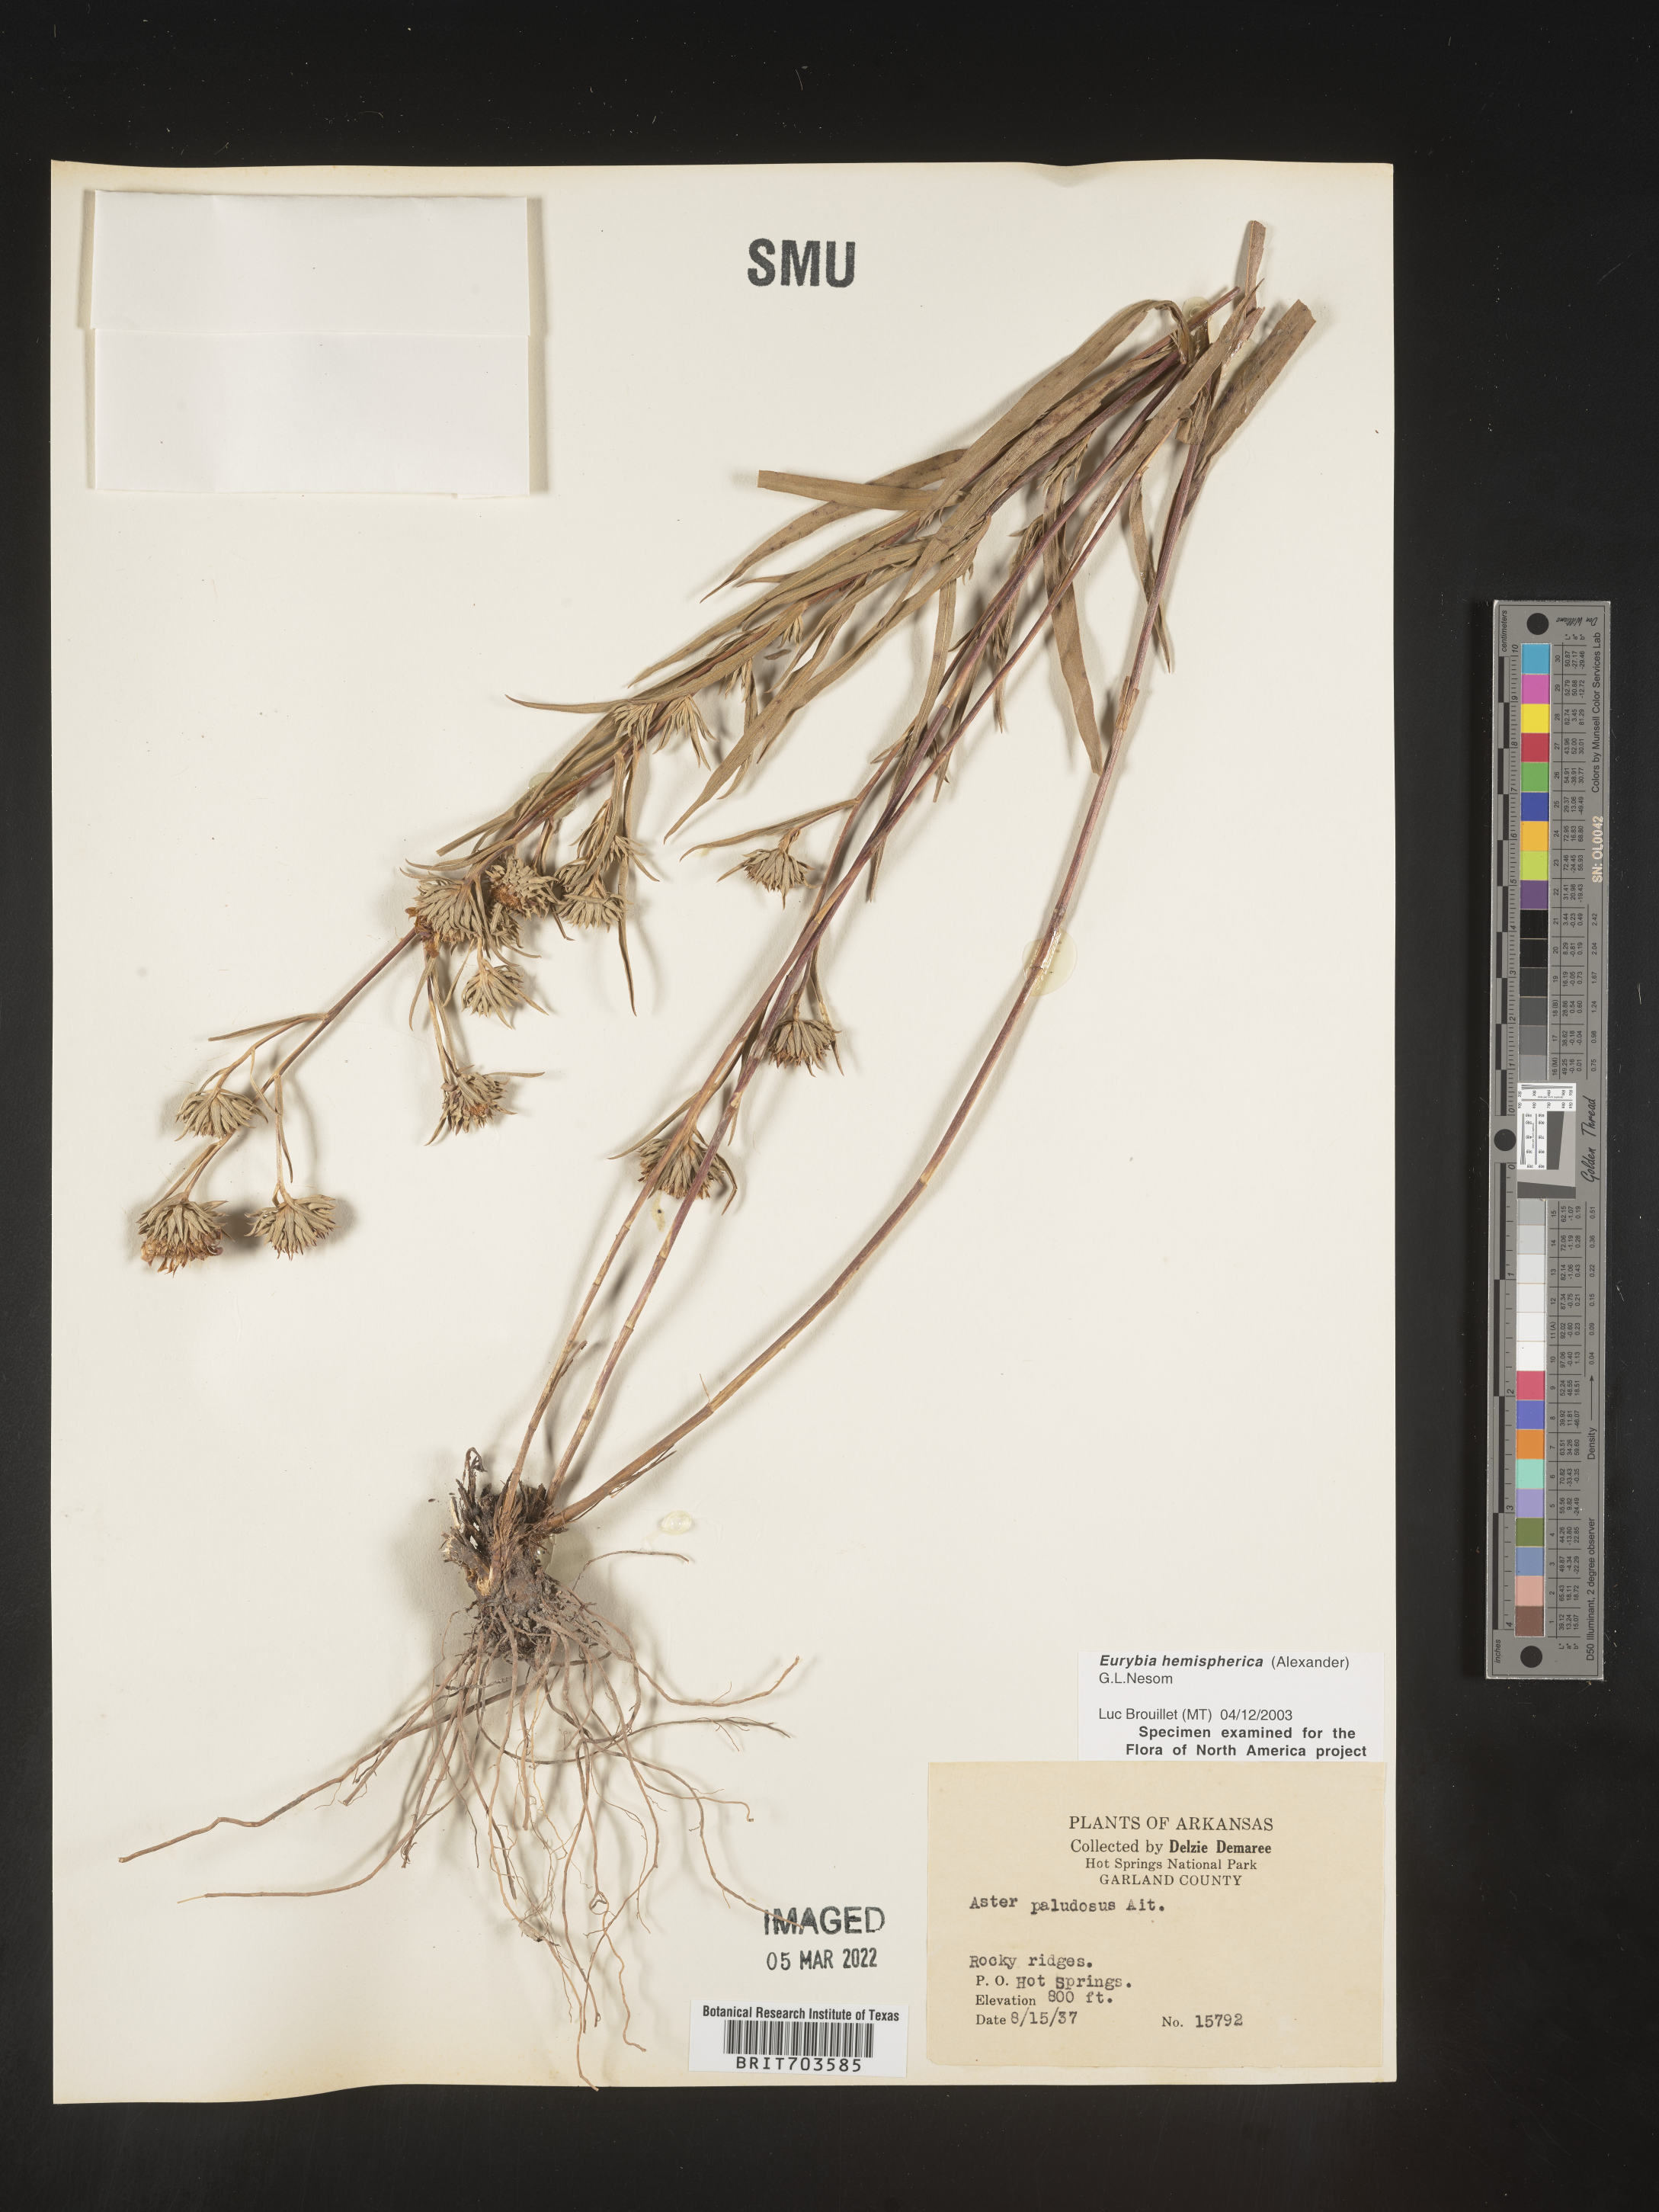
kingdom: Plantae
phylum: Tracheophyta
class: Magnoliopsida
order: Asterales
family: Asteraceae
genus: Eurybia
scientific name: Eurybia hemispherica
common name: Showy aster
